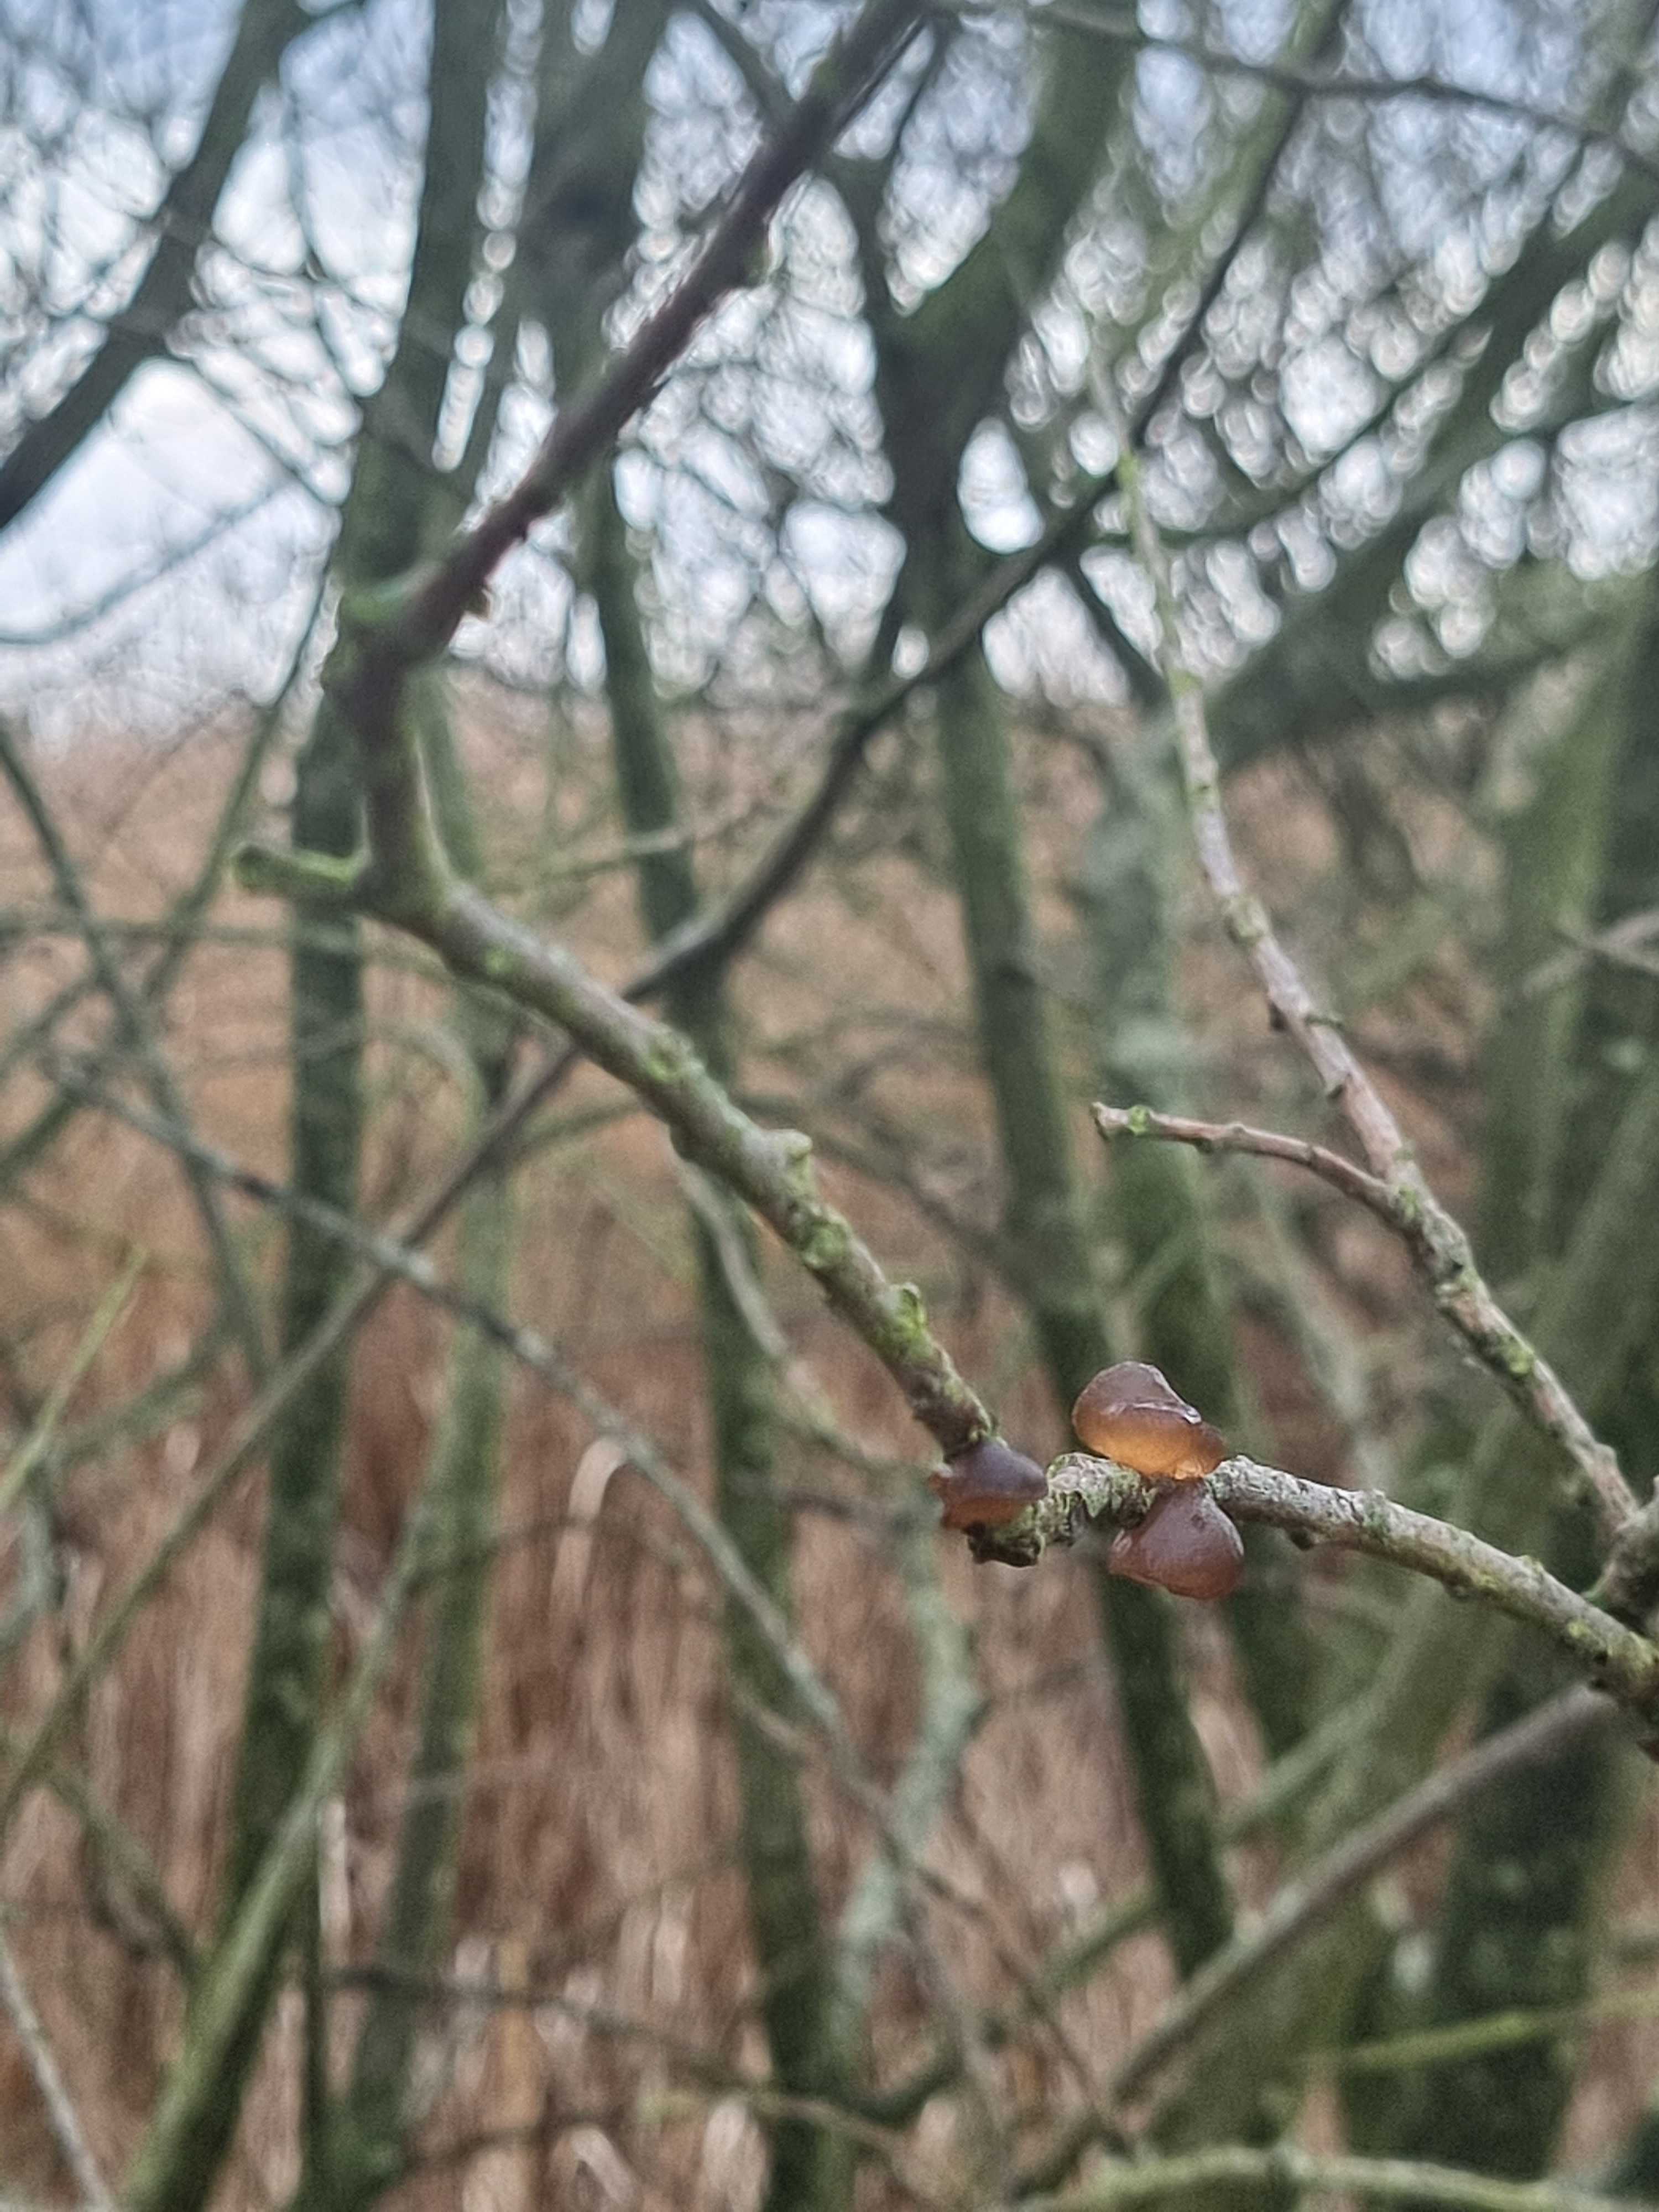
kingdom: Fungi
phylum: Basidiomycota
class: Agaricomycetes
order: Auriculariales
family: Auriculariaceae
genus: Exidia
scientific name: Exidia recisa
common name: pile-bævretop
